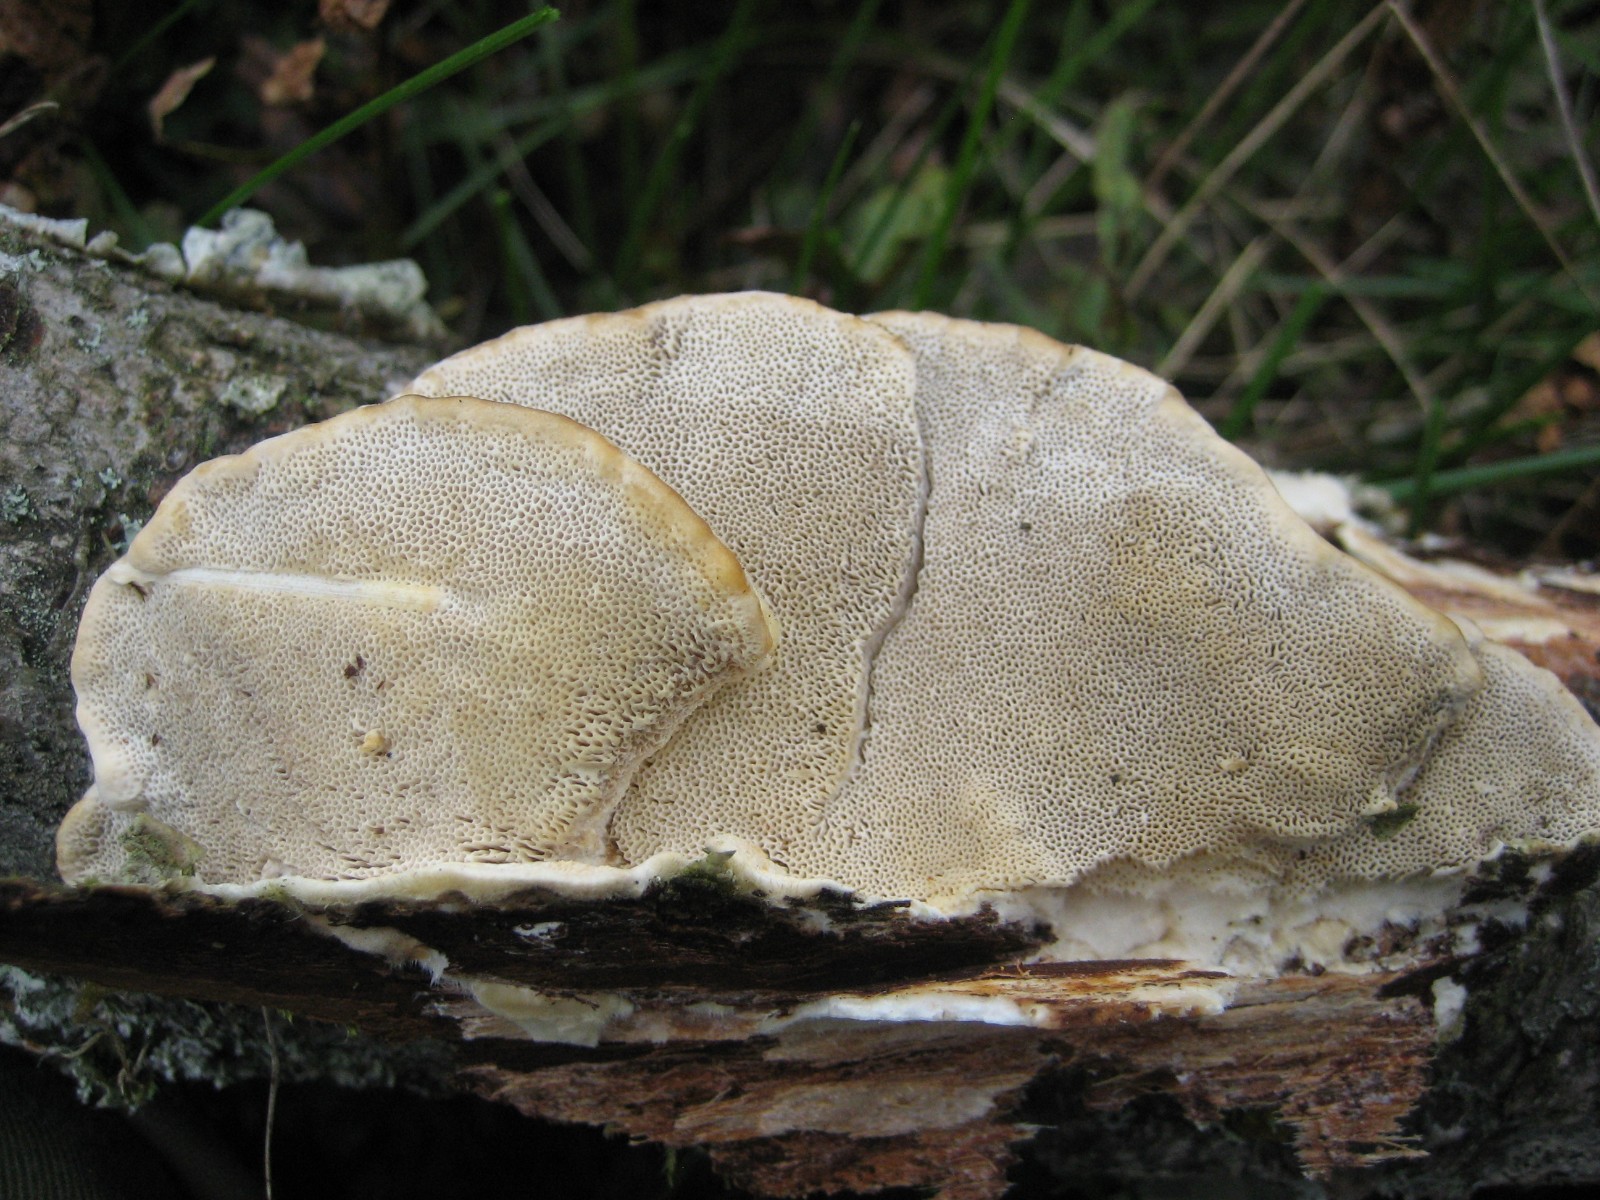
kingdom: Fungi
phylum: Basidiomycota
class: Agaricomycetes
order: Polyporales
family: Polyporaceae
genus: Trametes
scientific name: Trametes hirsuta
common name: håret læderporesvamp
